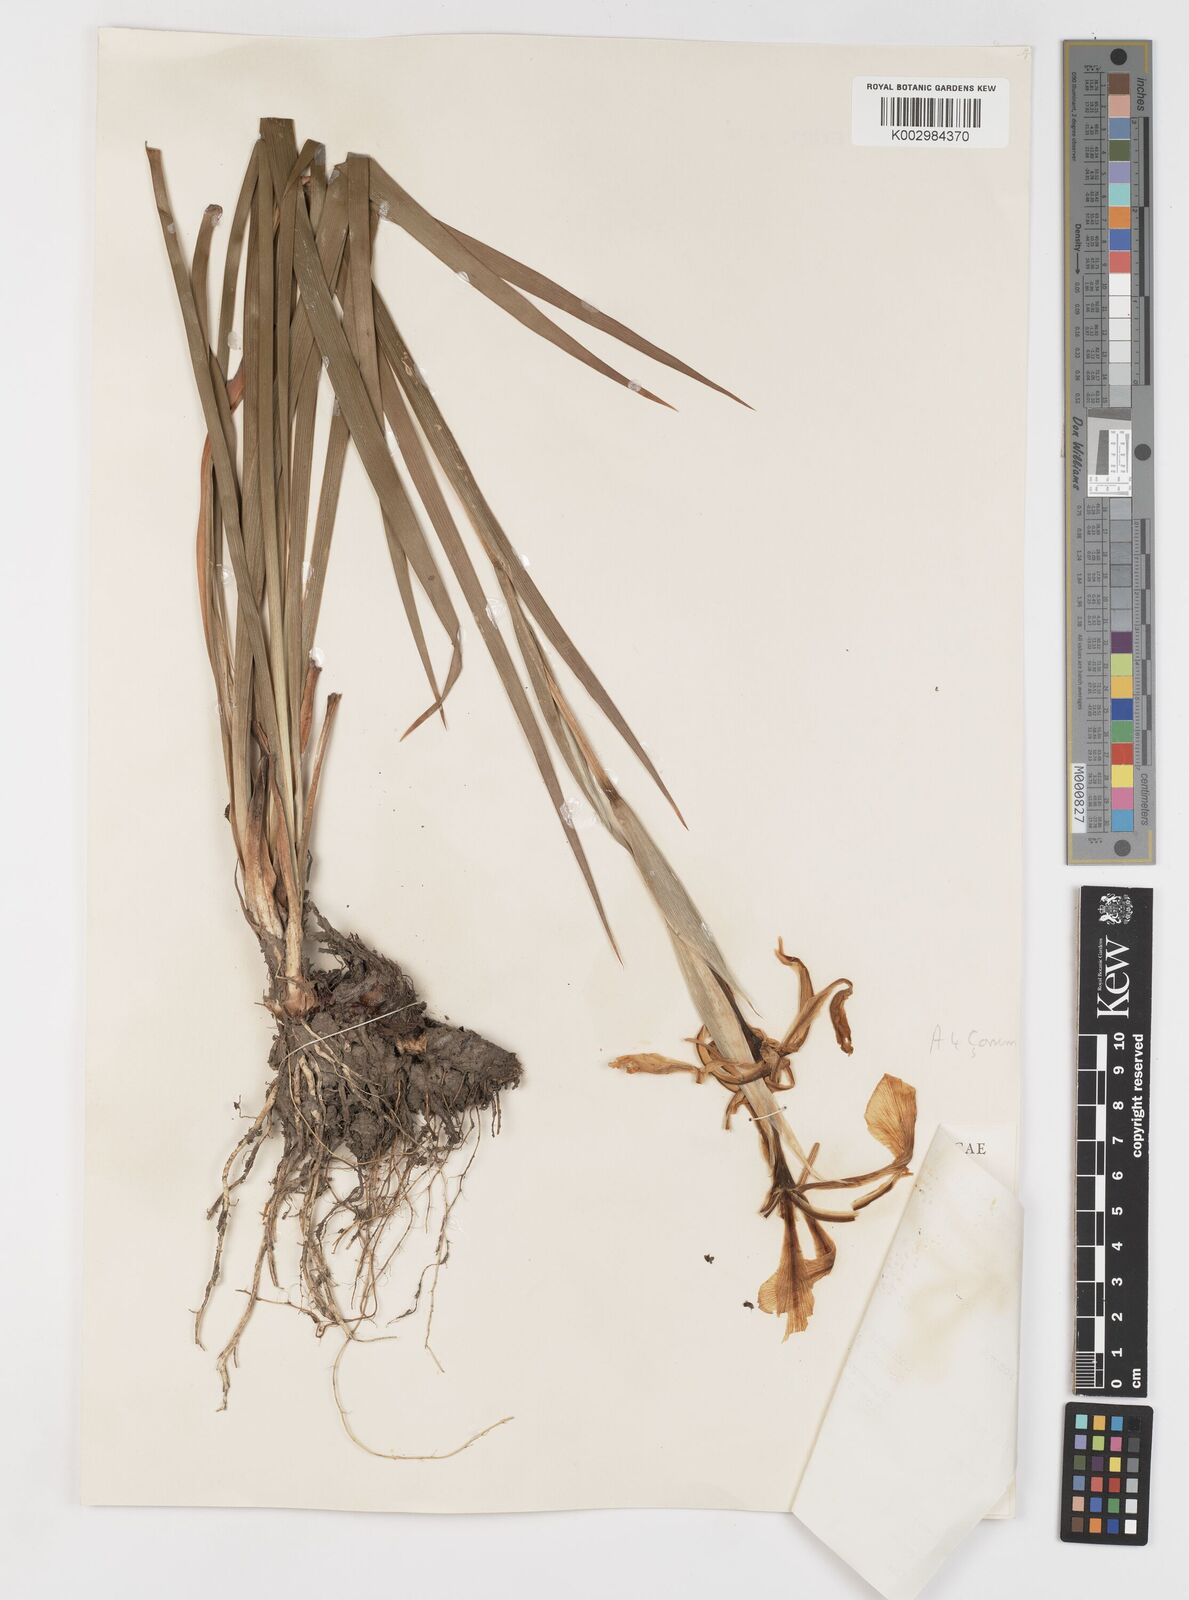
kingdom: Plantae
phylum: Tracheophyta
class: Liliopsida
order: Asparagales
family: Iridaceae
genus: Iris
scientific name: Iris orientalis
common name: Turkish iris
